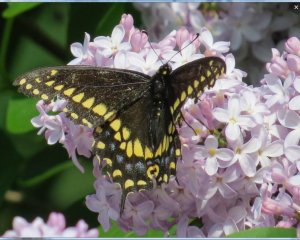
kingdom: Animalia
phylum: Arthropoda
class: Insecta
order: Lepidoptera
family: Papilionidae
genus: Papilio
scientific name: Papilio polyxenes
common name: Black Swallowtail
